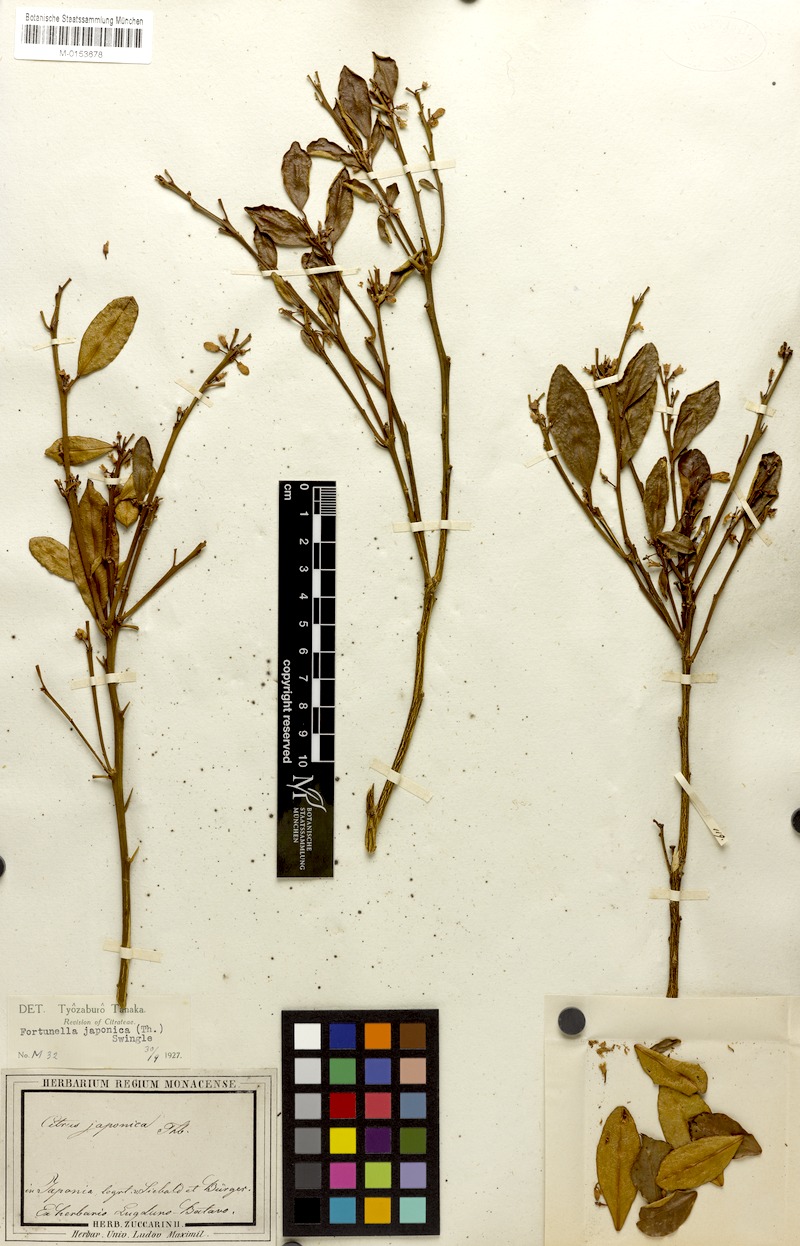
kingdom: Plantae
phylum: Tracheophyta
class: Magnoliopsida
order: Sapindales
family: Rutaceae
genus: Citrus
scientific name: Citrus japonica
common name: Kumquat
